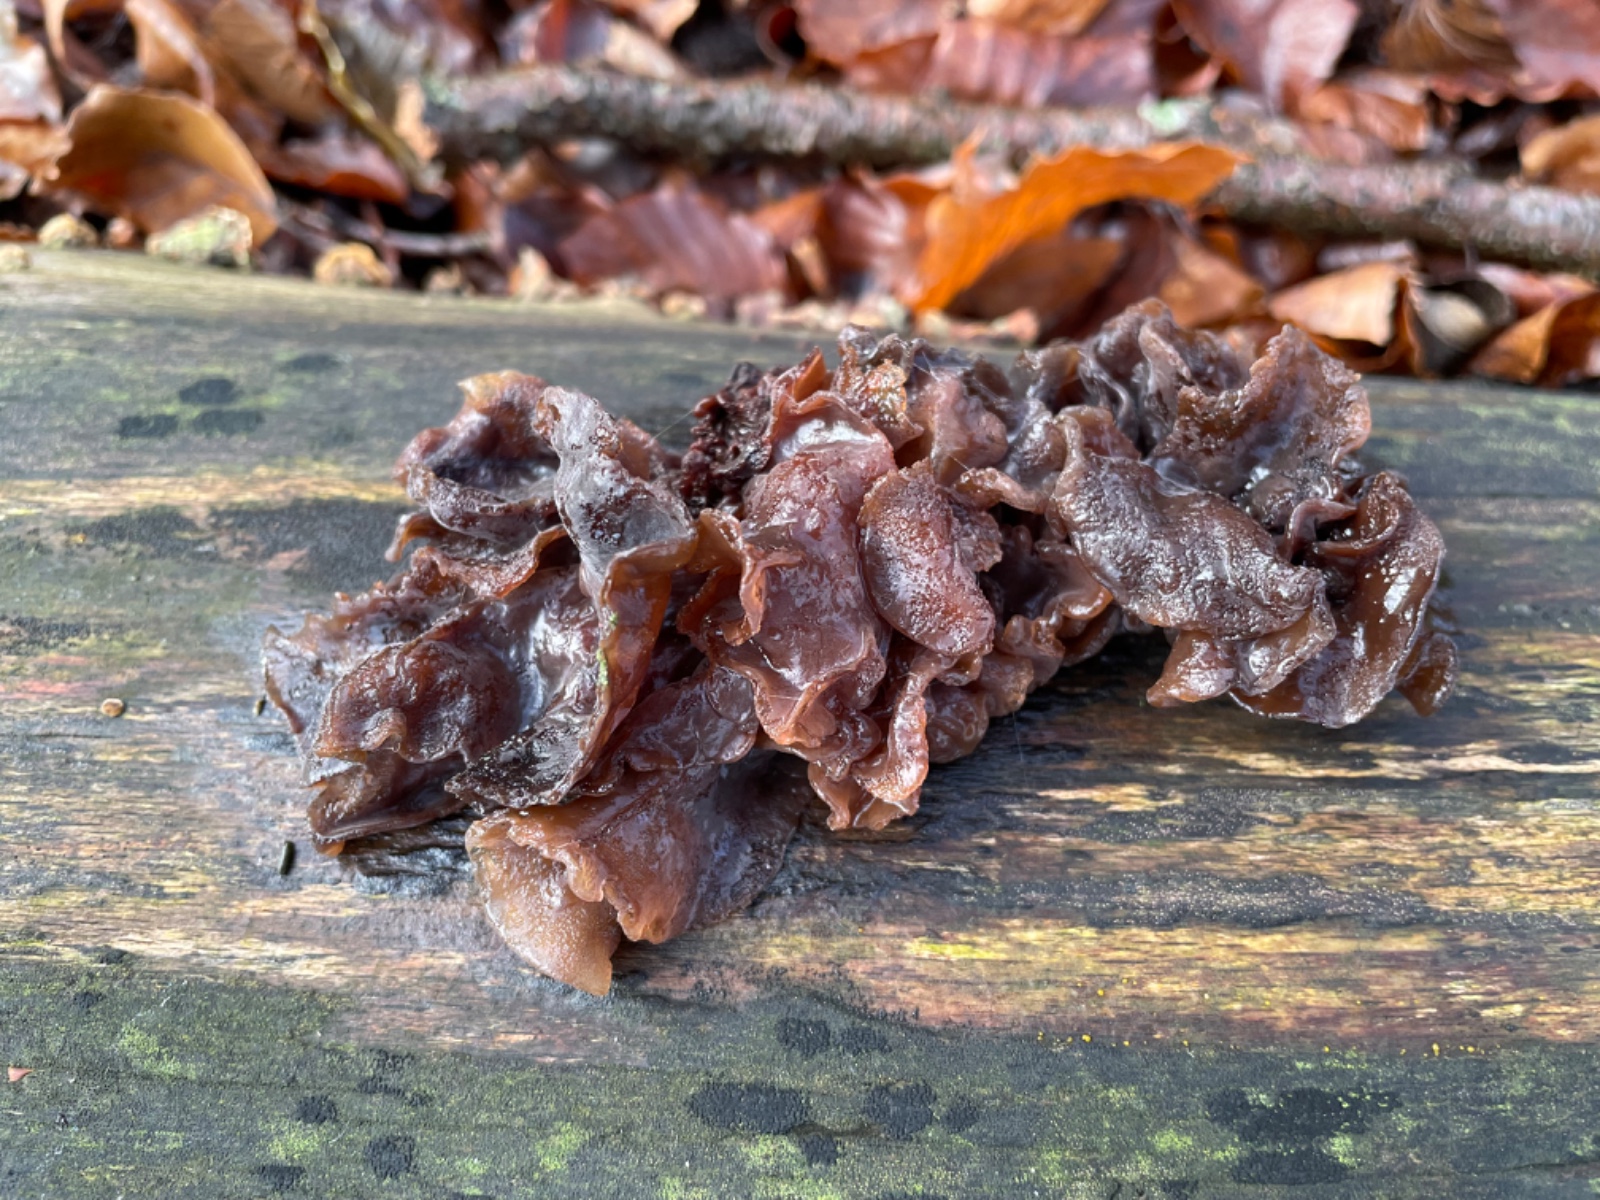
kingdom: Fungi
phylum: Basidiomycota
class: Tremellomycetes
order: Tremellales
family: Tremellaceae
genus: Phaeotremella
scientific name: Phaeotremella frondosa
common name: kæmpe-bævresvamp
